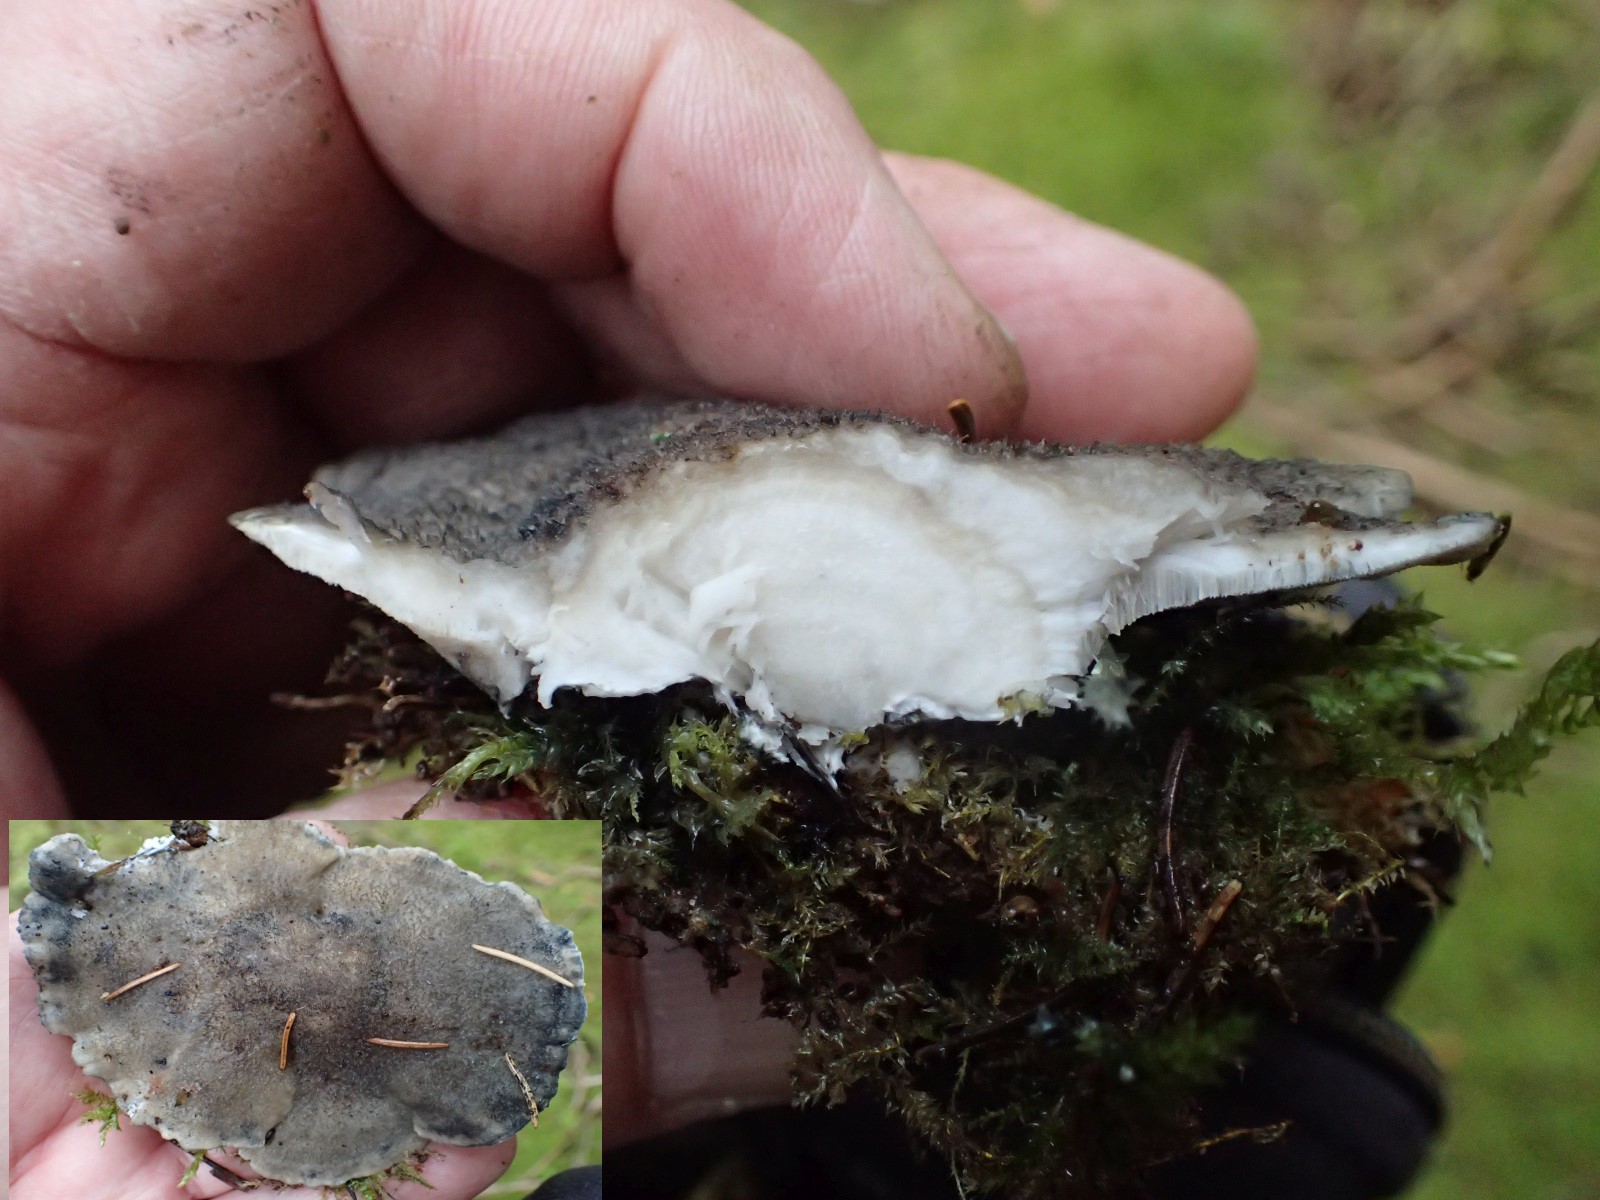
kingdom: Fungi
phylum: Basidiomycota
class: Agaricomycetes
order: Polyporales
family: Polyporaceae
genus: Cyanosporus
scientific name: Cyanosporus caesius
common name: blålig kødporesvamp
